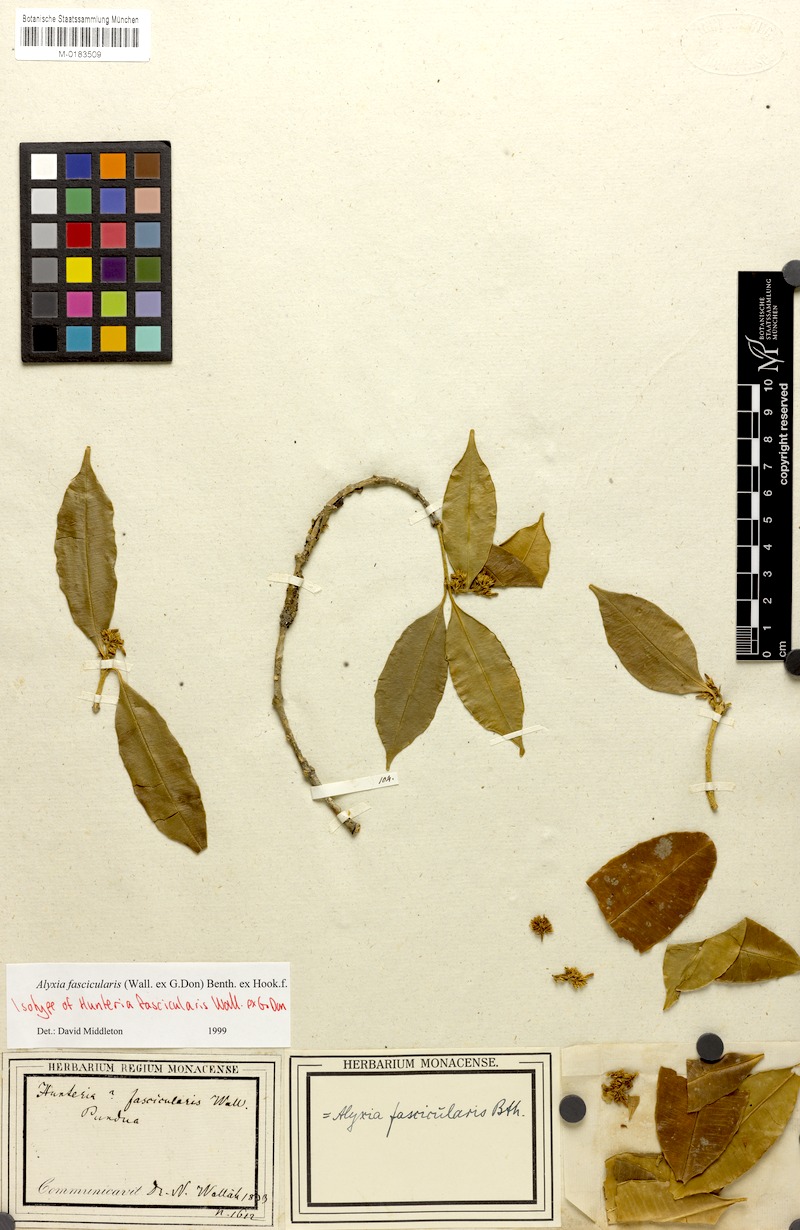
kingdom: Plantae
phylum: Tracheophyta
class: Magnoliopsida
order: Gentianales
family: Apocynaceae
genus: Alyxia
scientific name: Alyxia fascicularis
